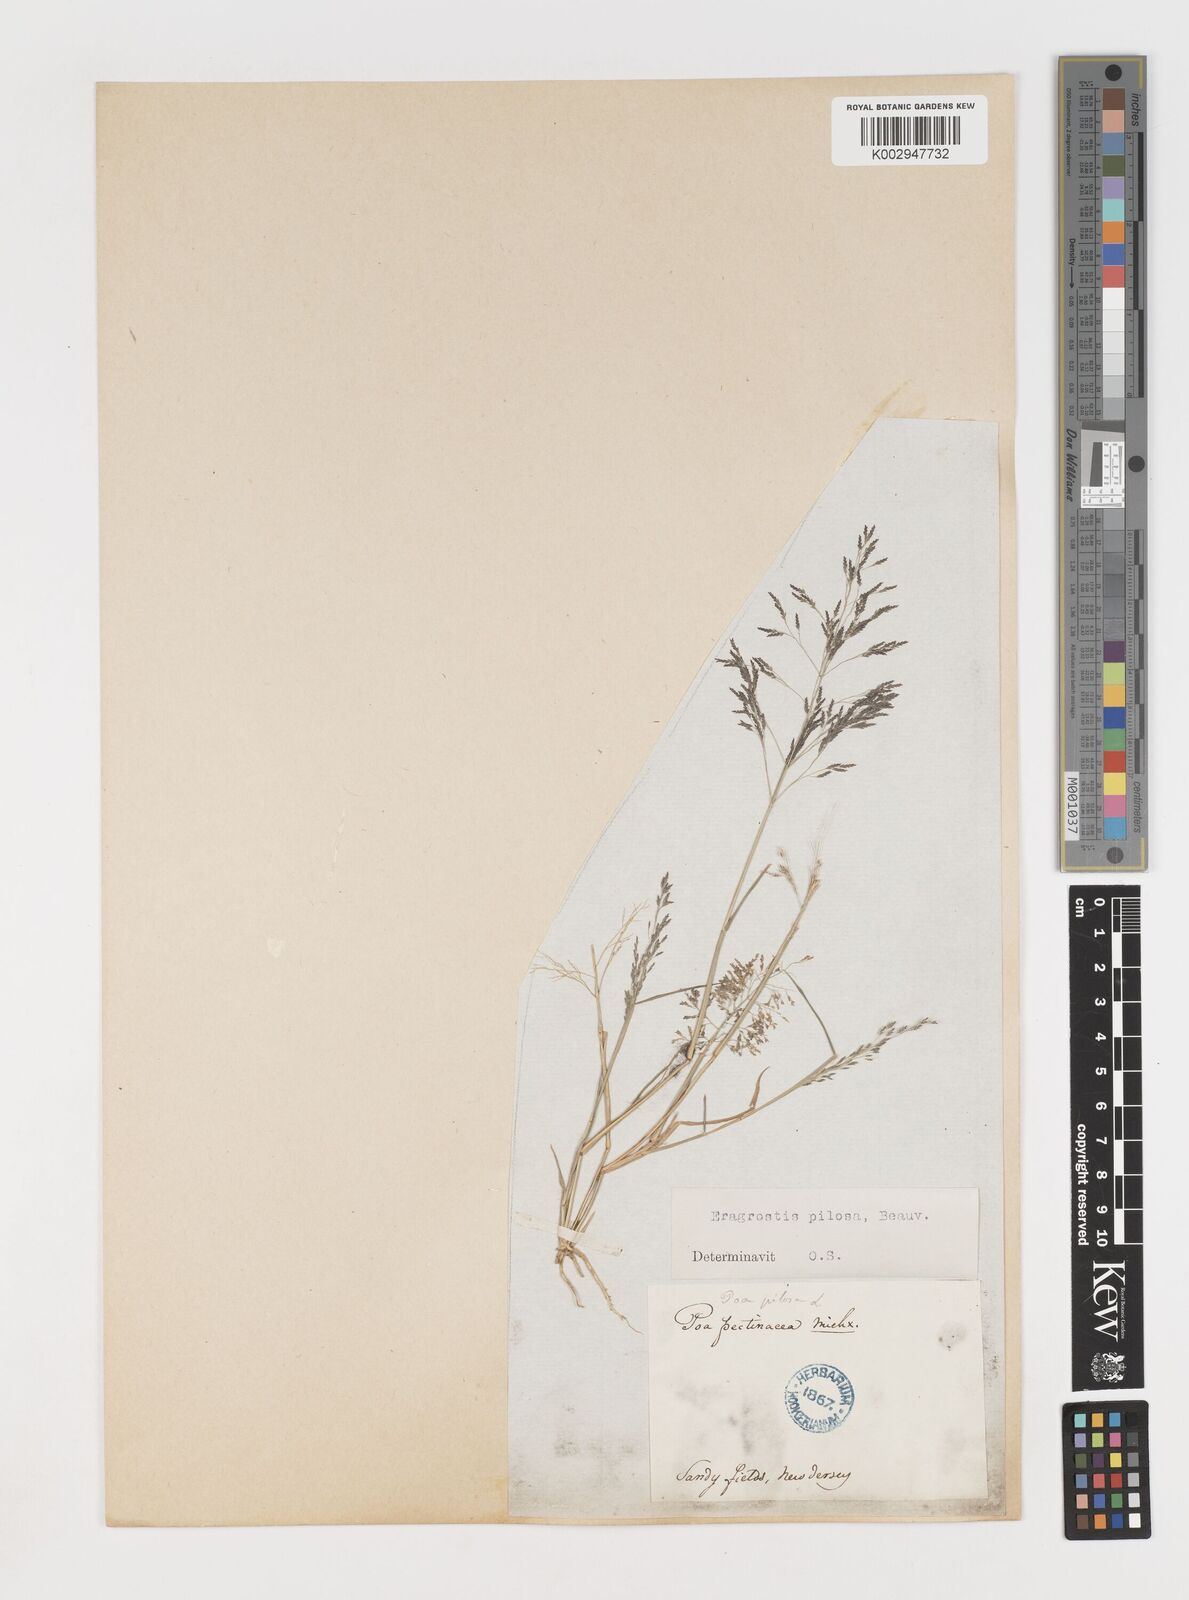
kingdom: Plantae
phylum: Tracheophyta
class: Liliopsida
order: Poales
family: Poaceae
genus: Eragrostis
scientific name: Eragrostis pilosa
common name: Indian lovegrass
